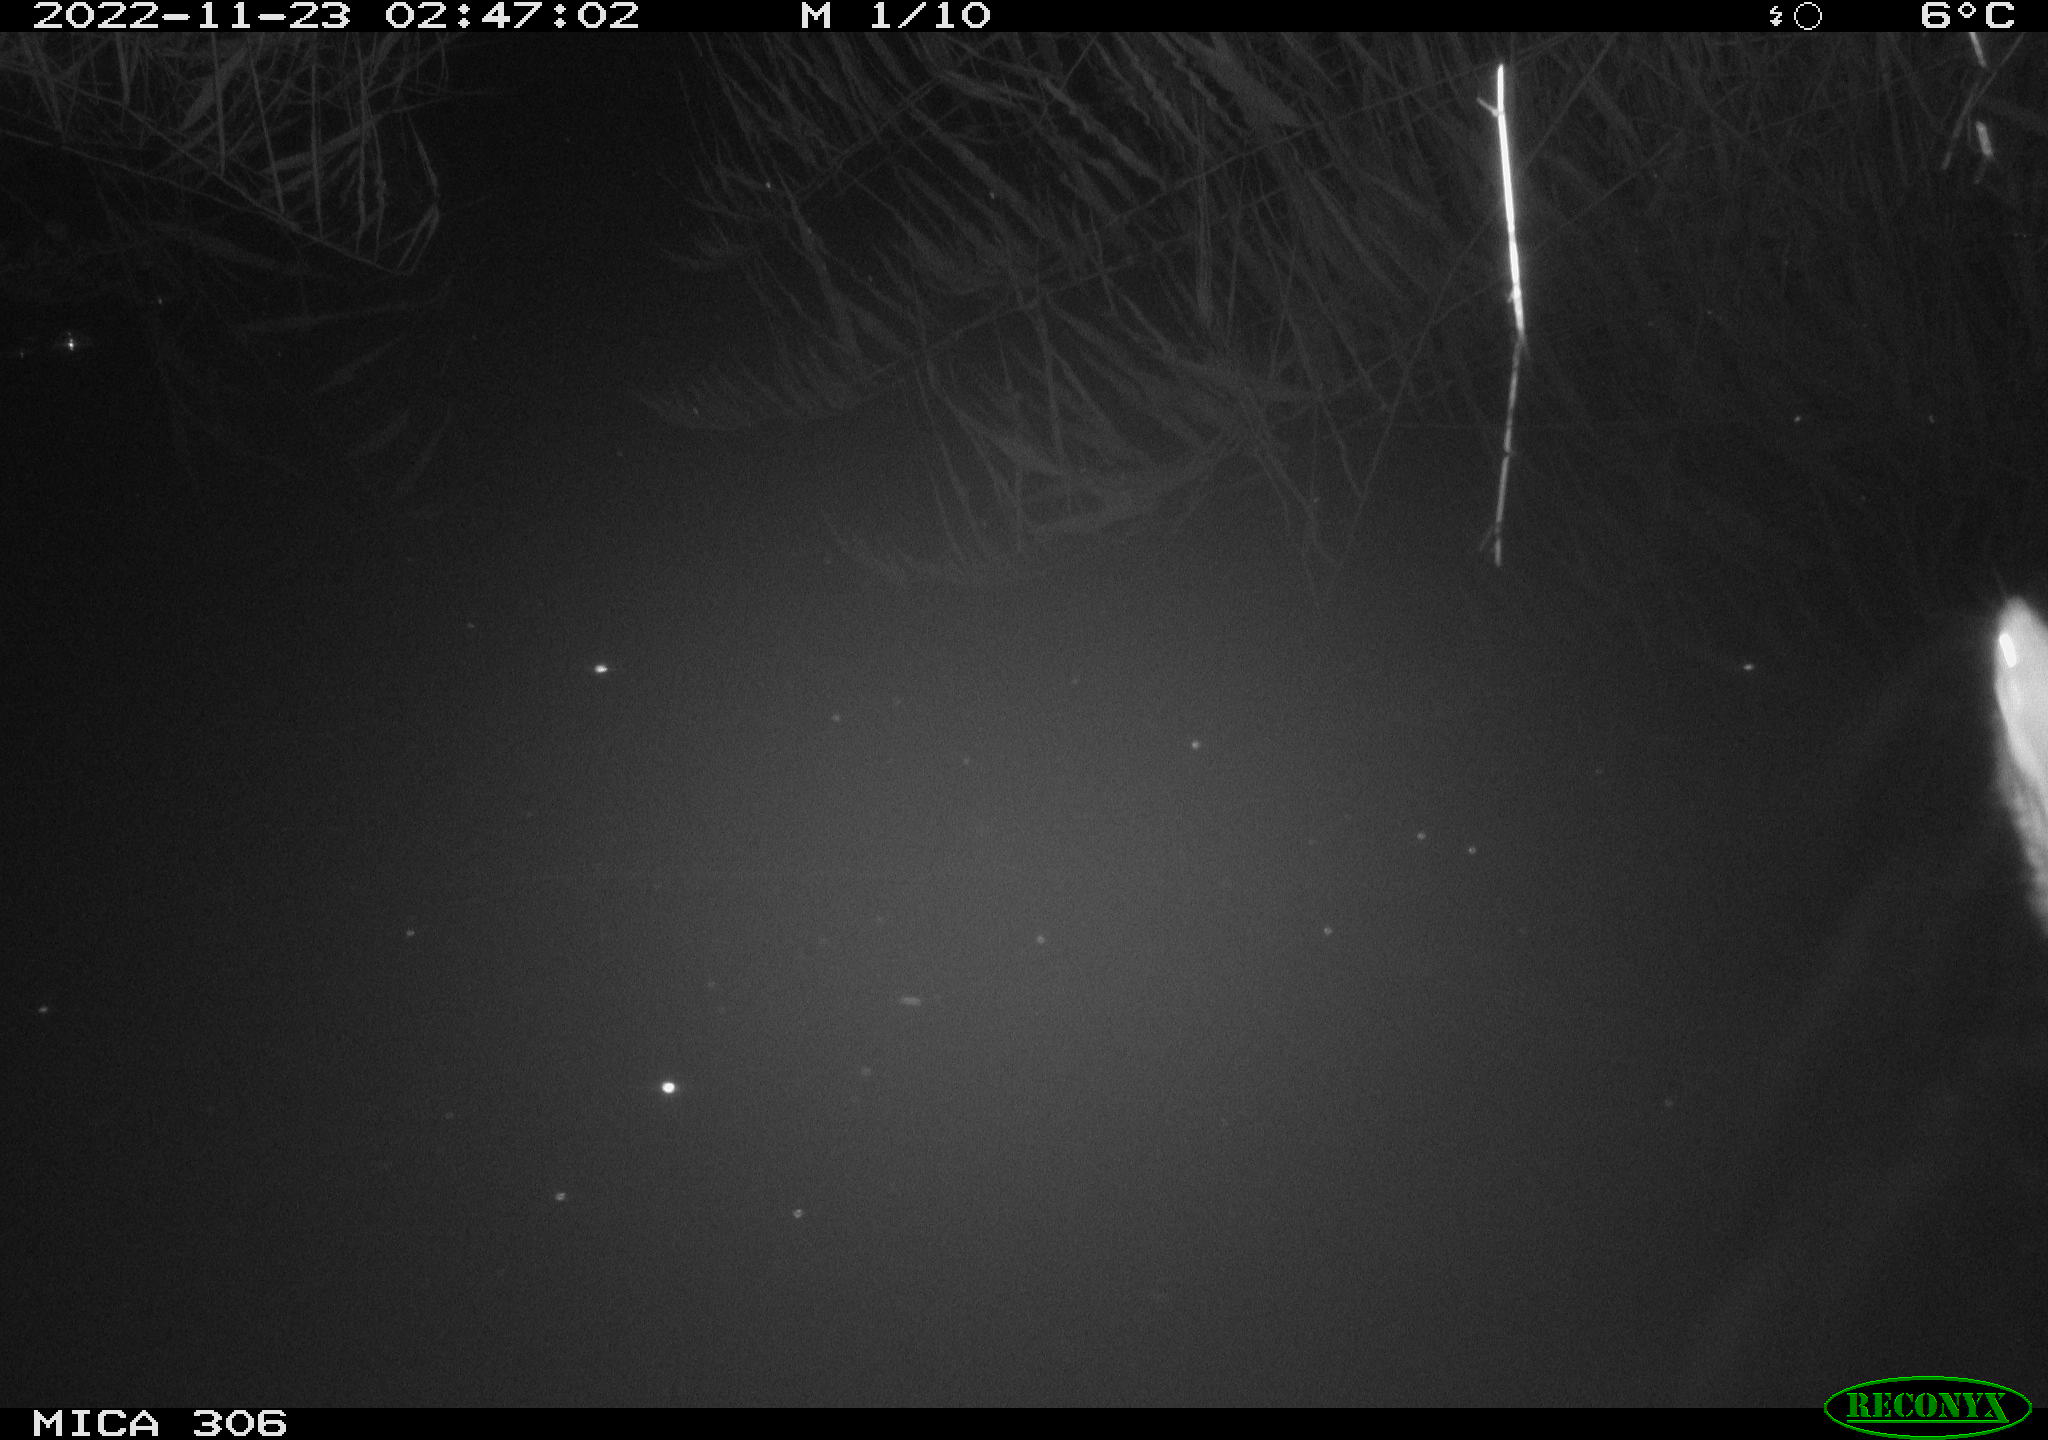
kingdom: Animalia
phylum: Chordata
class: Mammalia
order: Rodentia
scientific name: Rodentia
